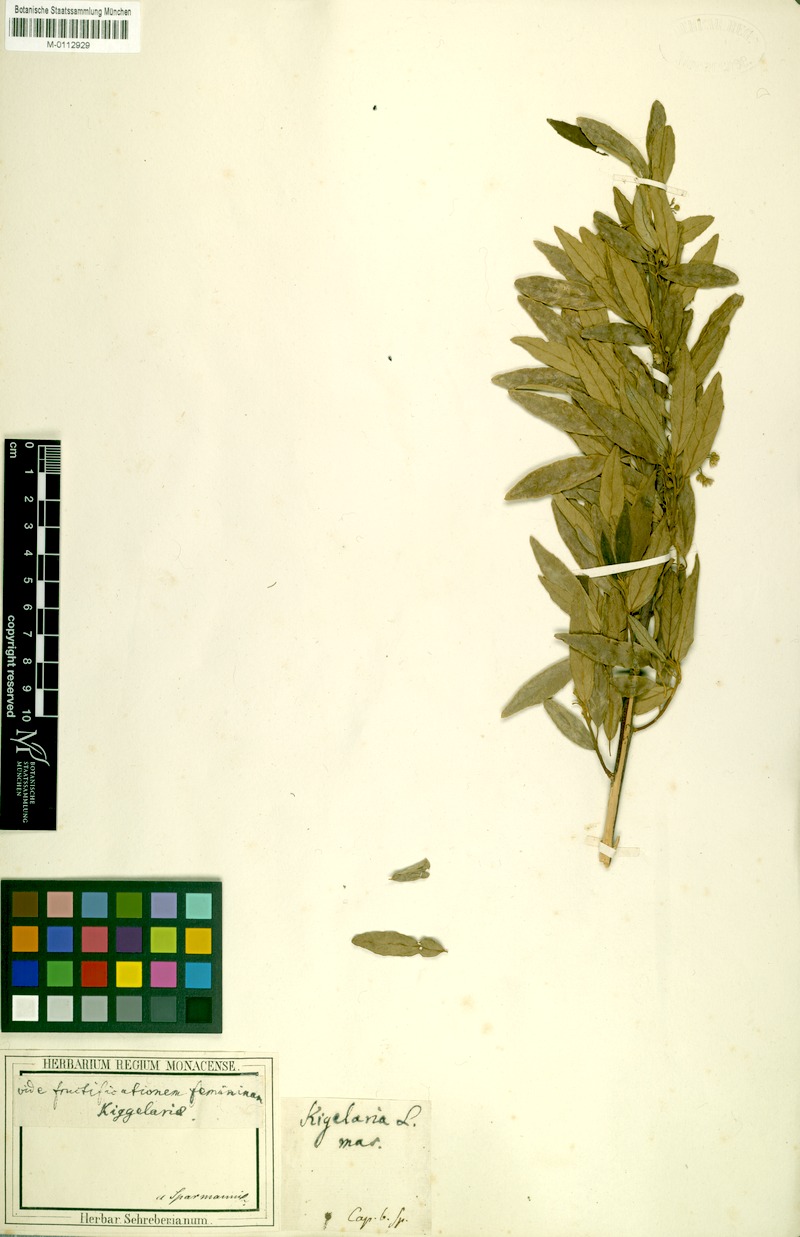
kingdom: Plantae
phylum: Tracheophyta
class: Magnoliopsida
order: Malpighiales
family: Achariaceae
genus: Kiggelaria
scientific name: Kiggelaria africana
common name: Wild peach
